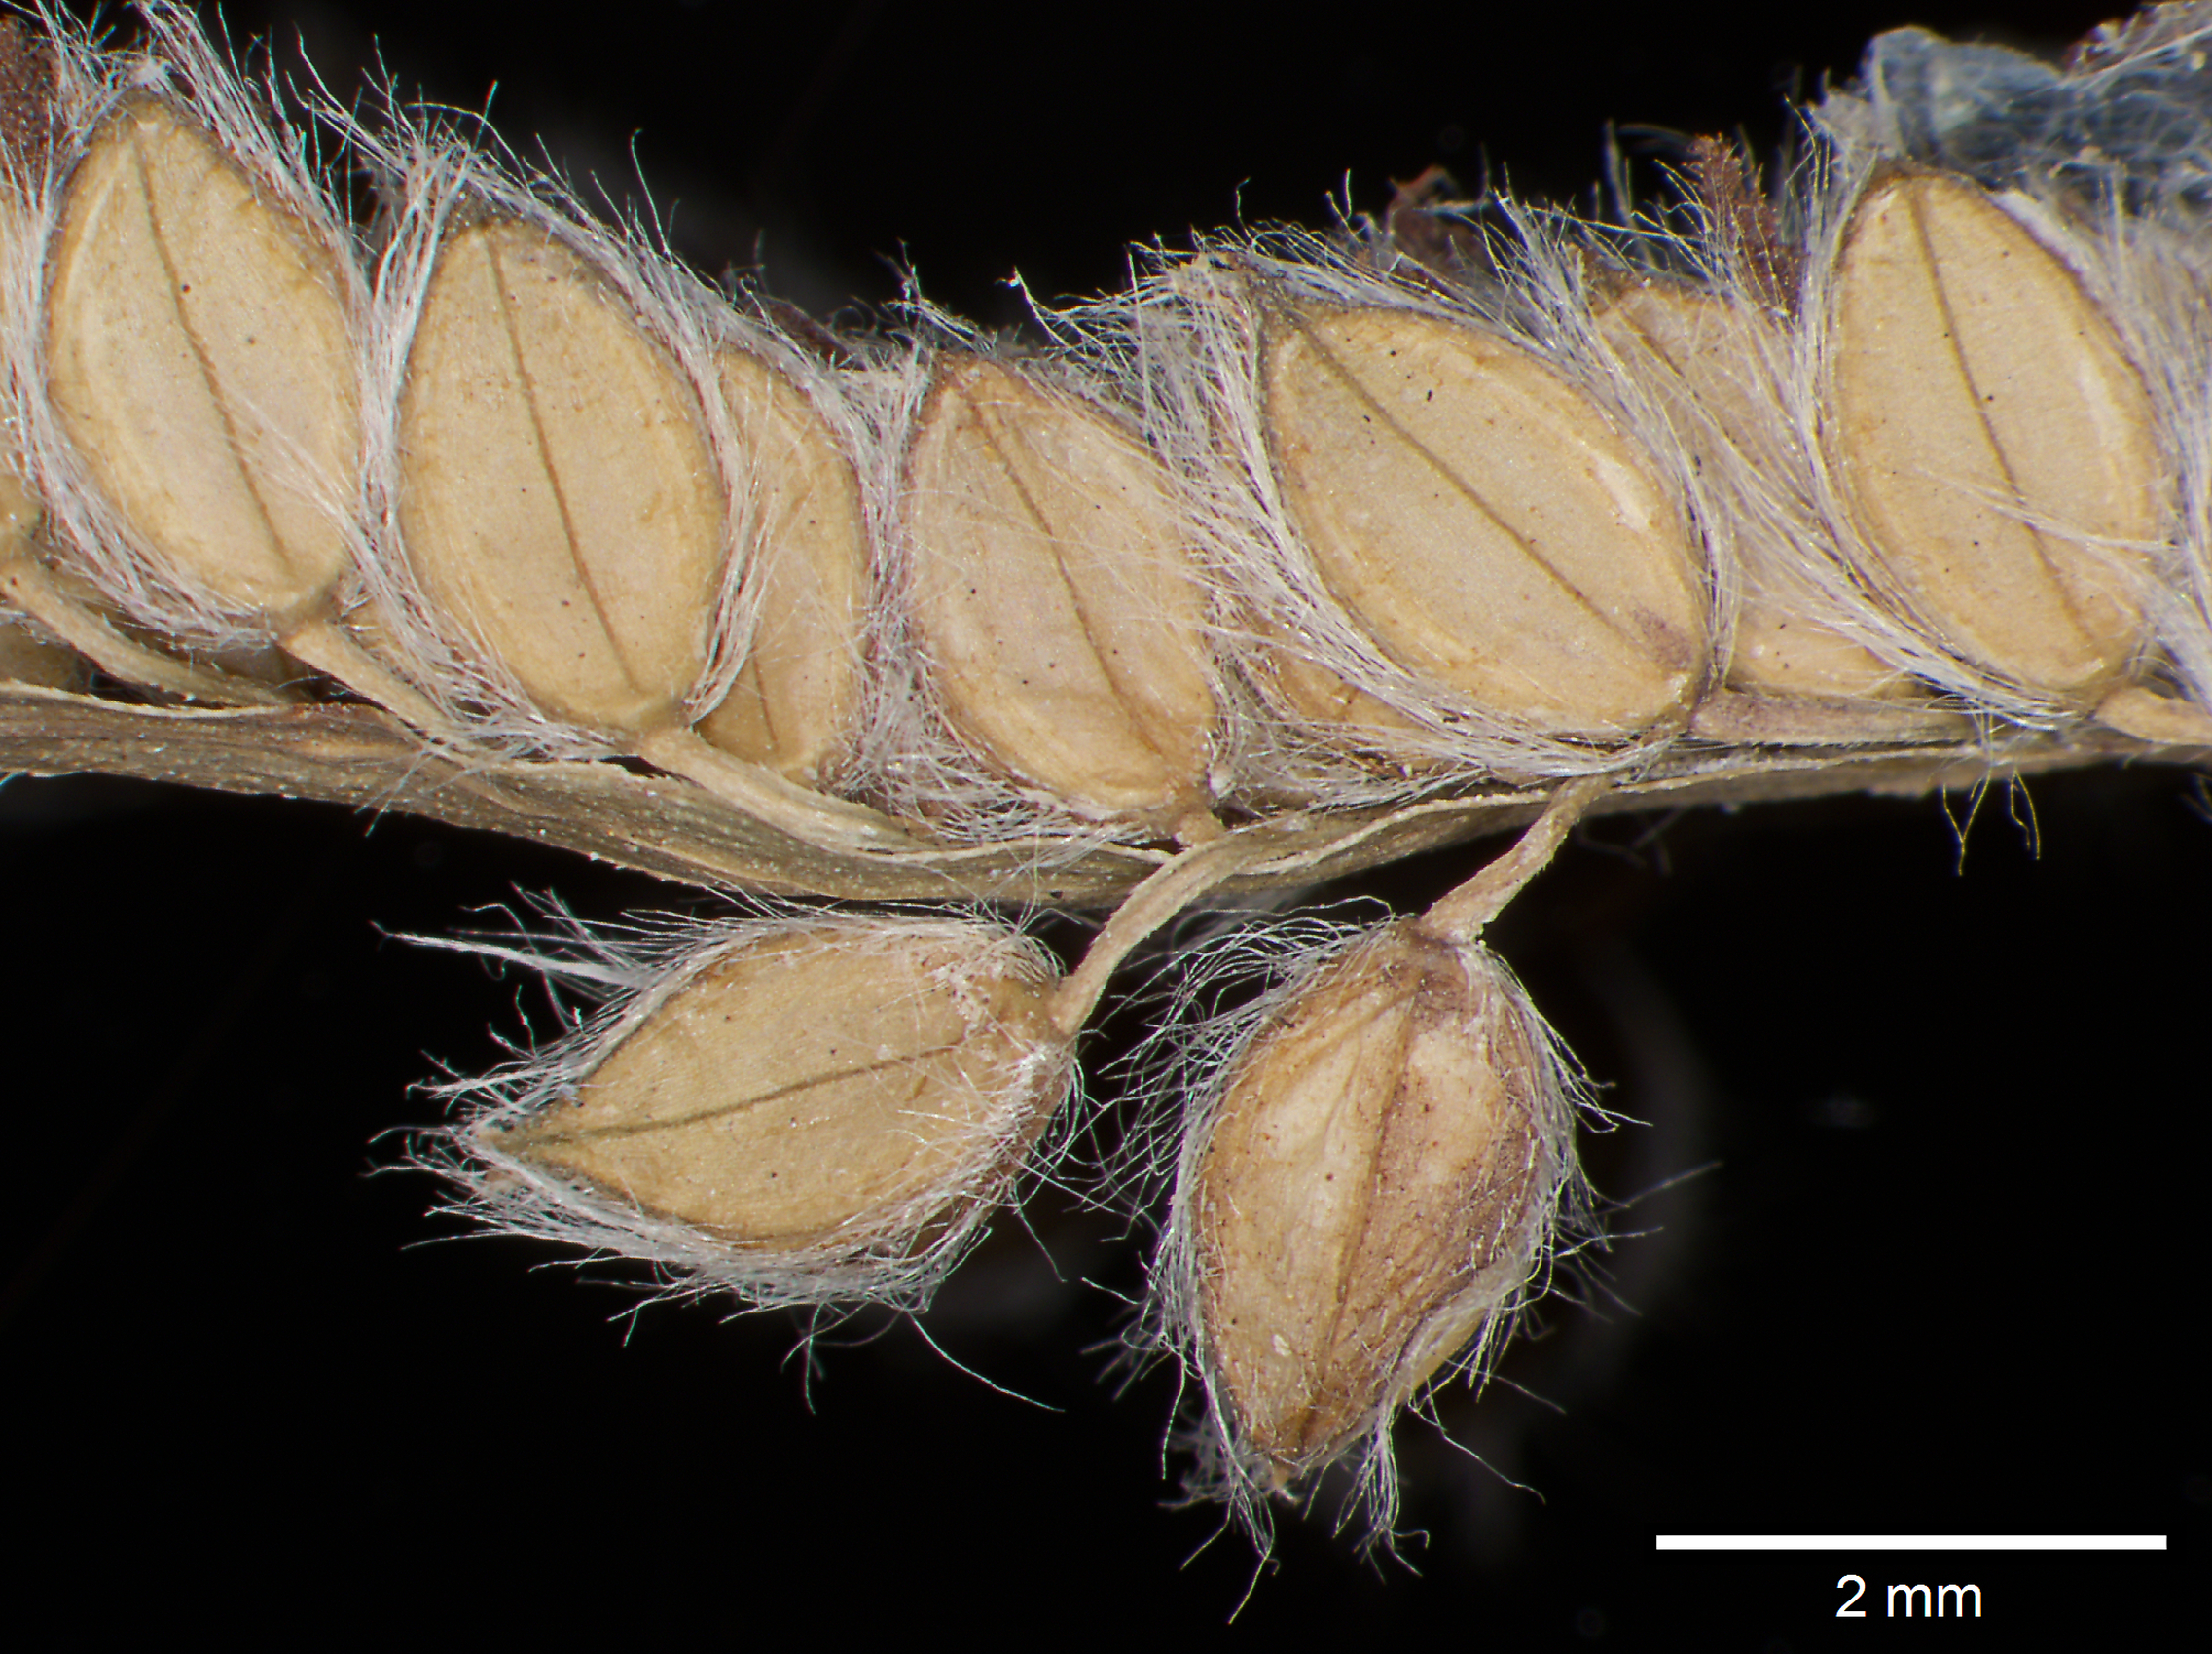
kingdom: Plantae
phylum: Tracheophyta
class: Liliopsida
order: Poales
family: Poaceae
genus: Paspalum
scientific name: Paspalum urvillei
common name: Vasey's grass
